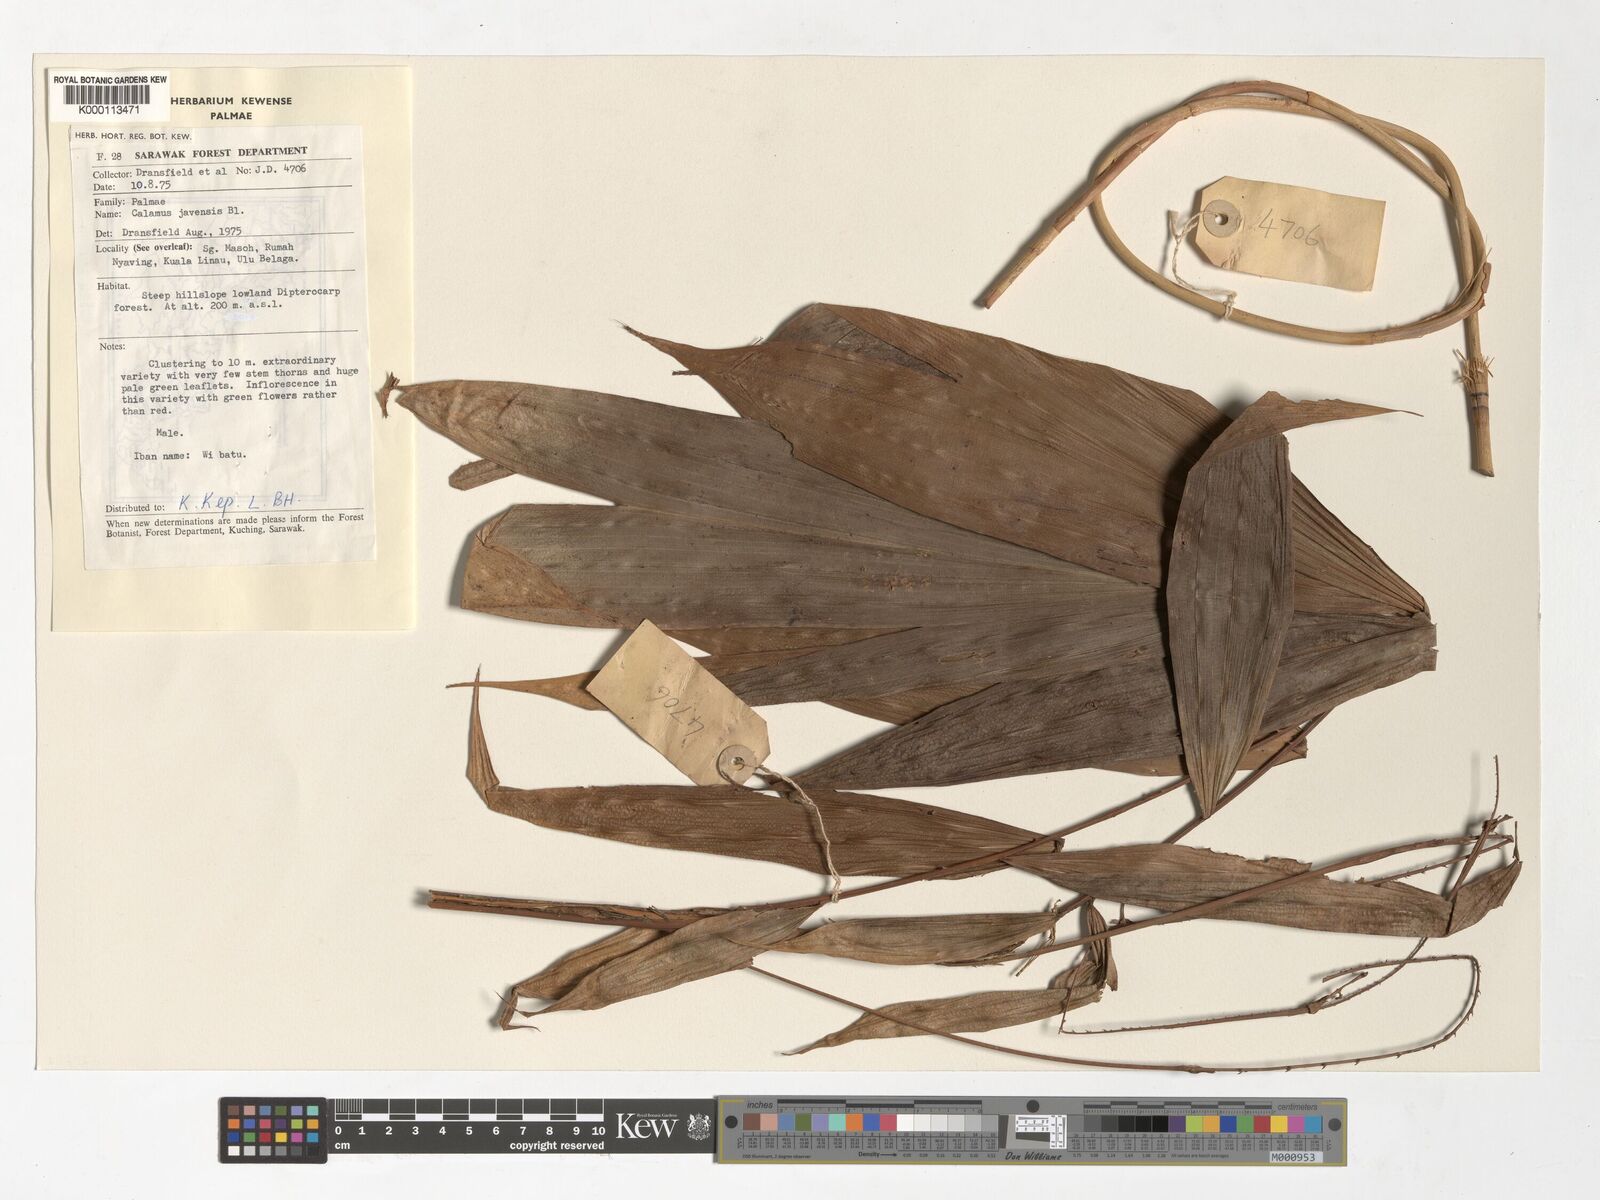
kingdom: Plantae
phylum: Tracheophyta
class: Liliopsida
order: Arecales
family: Arecaceae
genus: Calamus
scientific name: Calamus javensis
